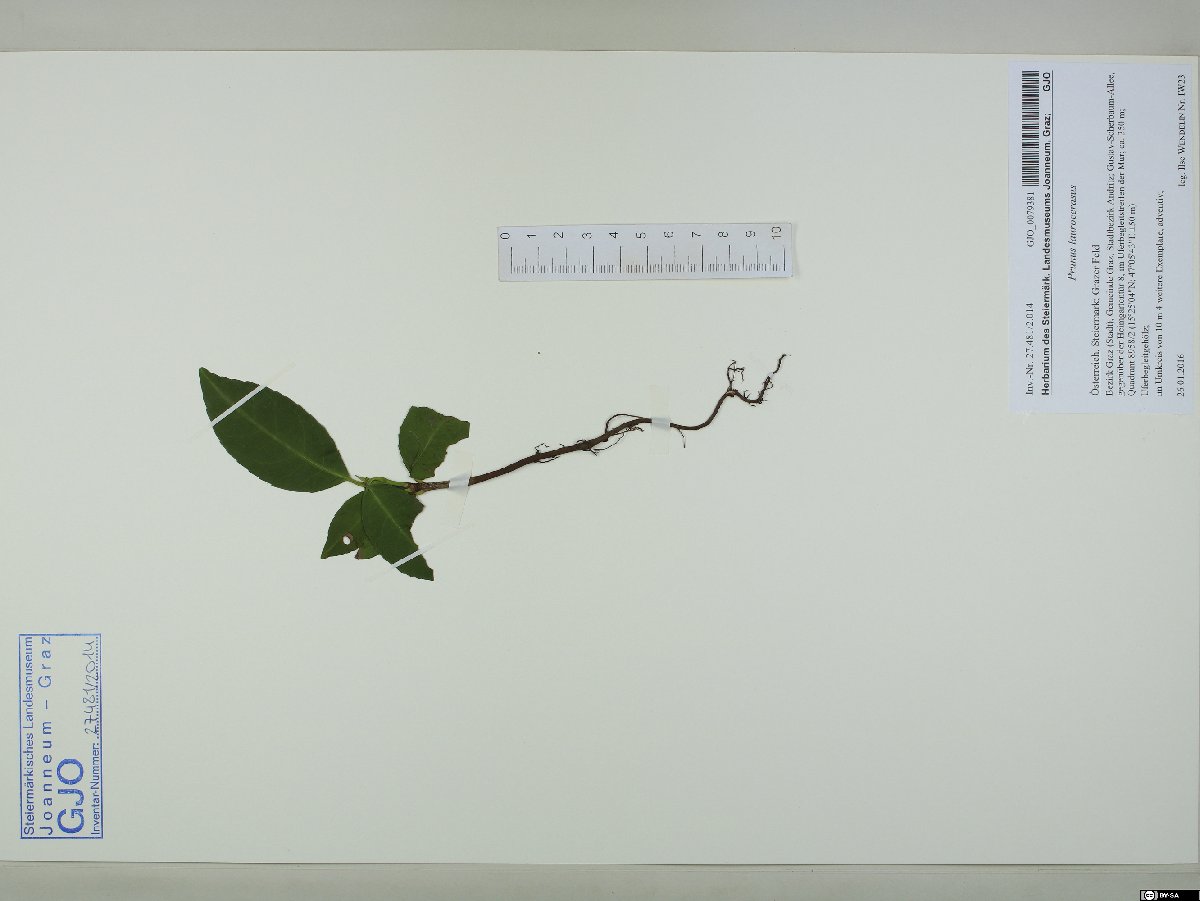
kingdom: Plantae
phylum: Tracheophyta
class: Magnoliopsida
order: Rosales
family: Rosaceae
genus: Prunus
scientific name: Prunus laurocerasus
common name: Cherry laurel
